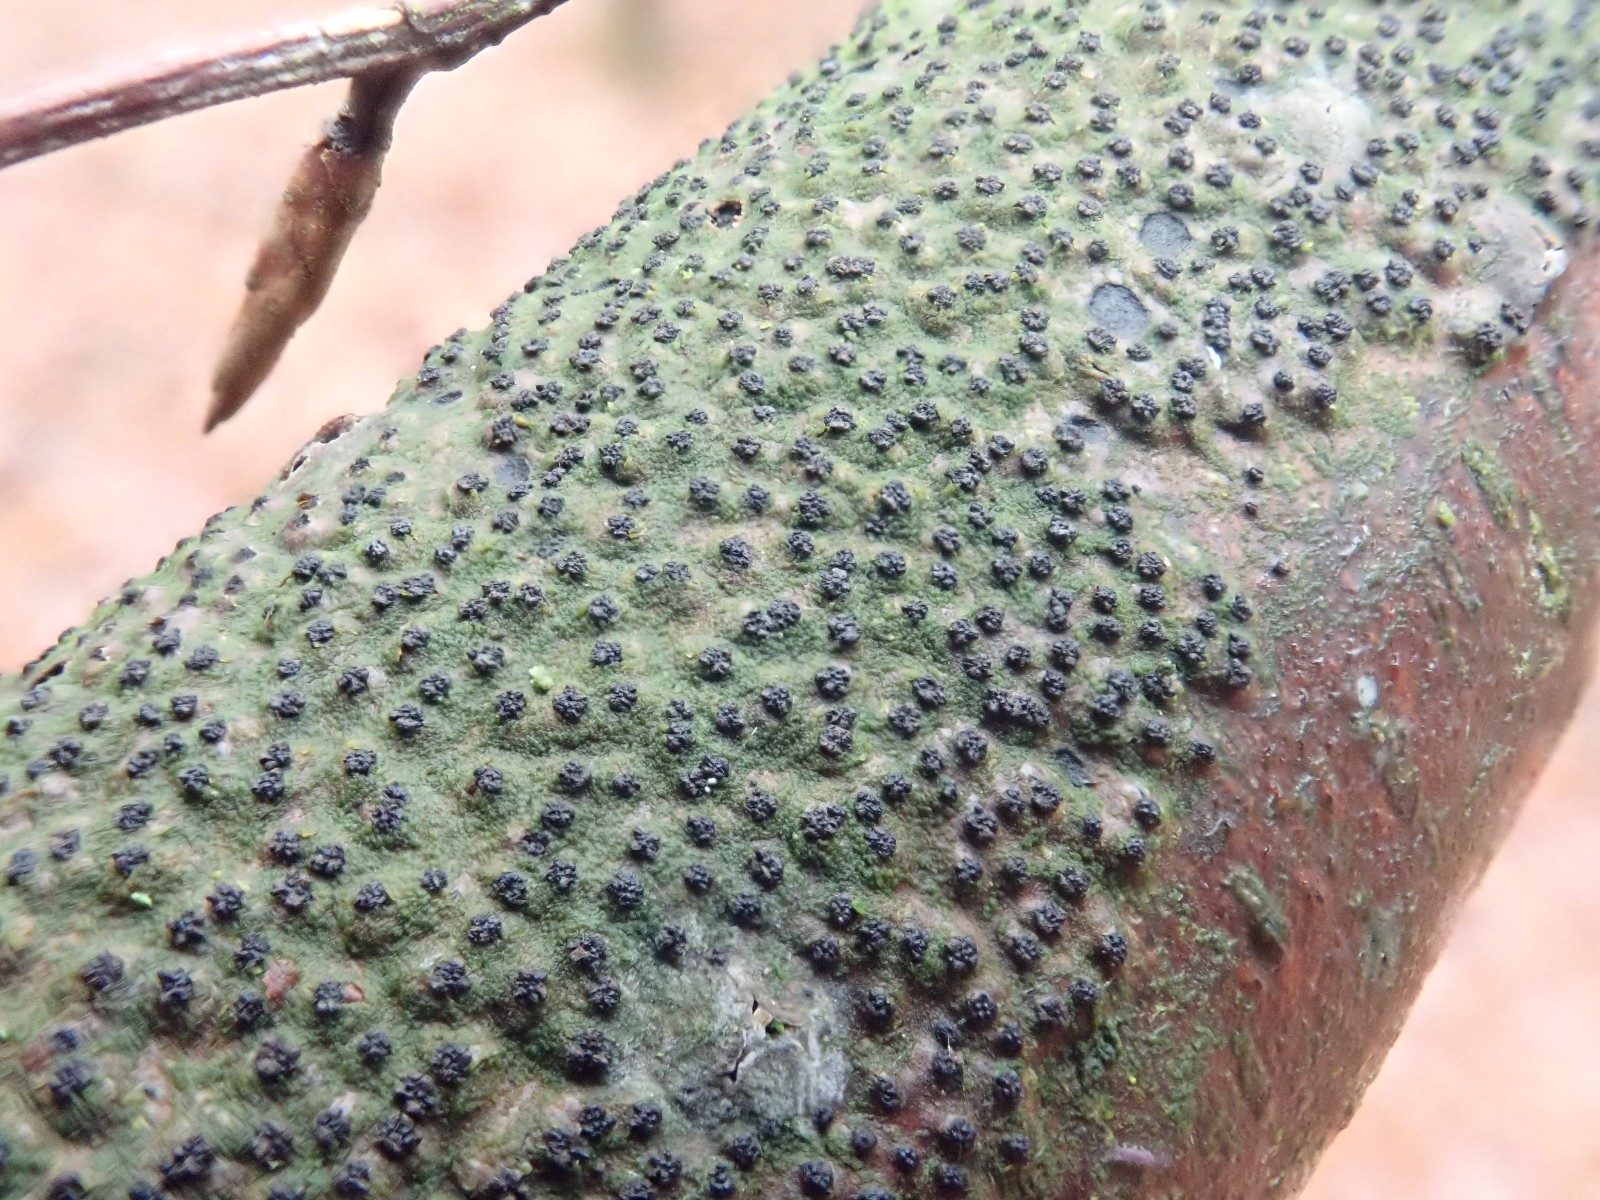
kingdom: Fungi
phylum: Ascomycota
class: Sordariomycetes
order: Xylariales
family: Diatrypaceae
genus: Eutypella
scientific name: Eutypella quaternata
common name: bøge-korsprik
